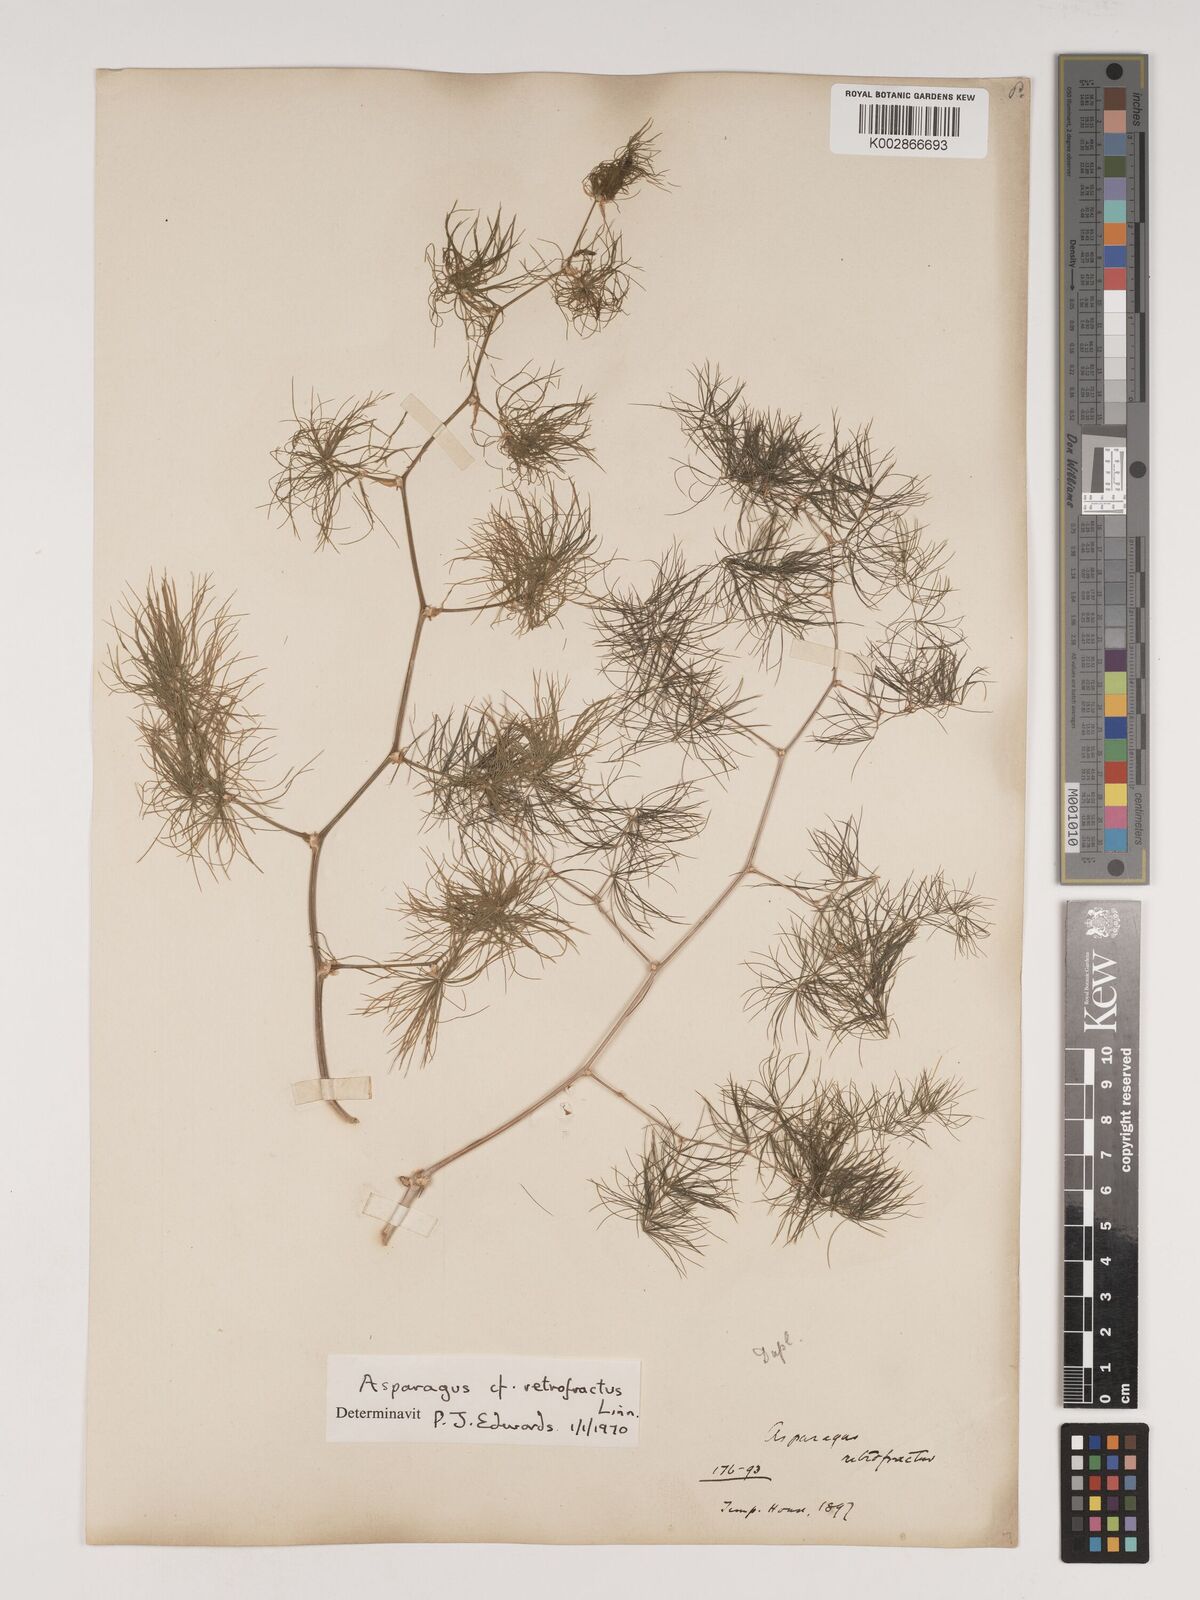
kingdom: Plantae
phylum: Tracheophyta
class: Liliopsida
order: Asparagales
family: Asparagaceae
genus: Asparagus
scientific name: Asparagus retrofractus
